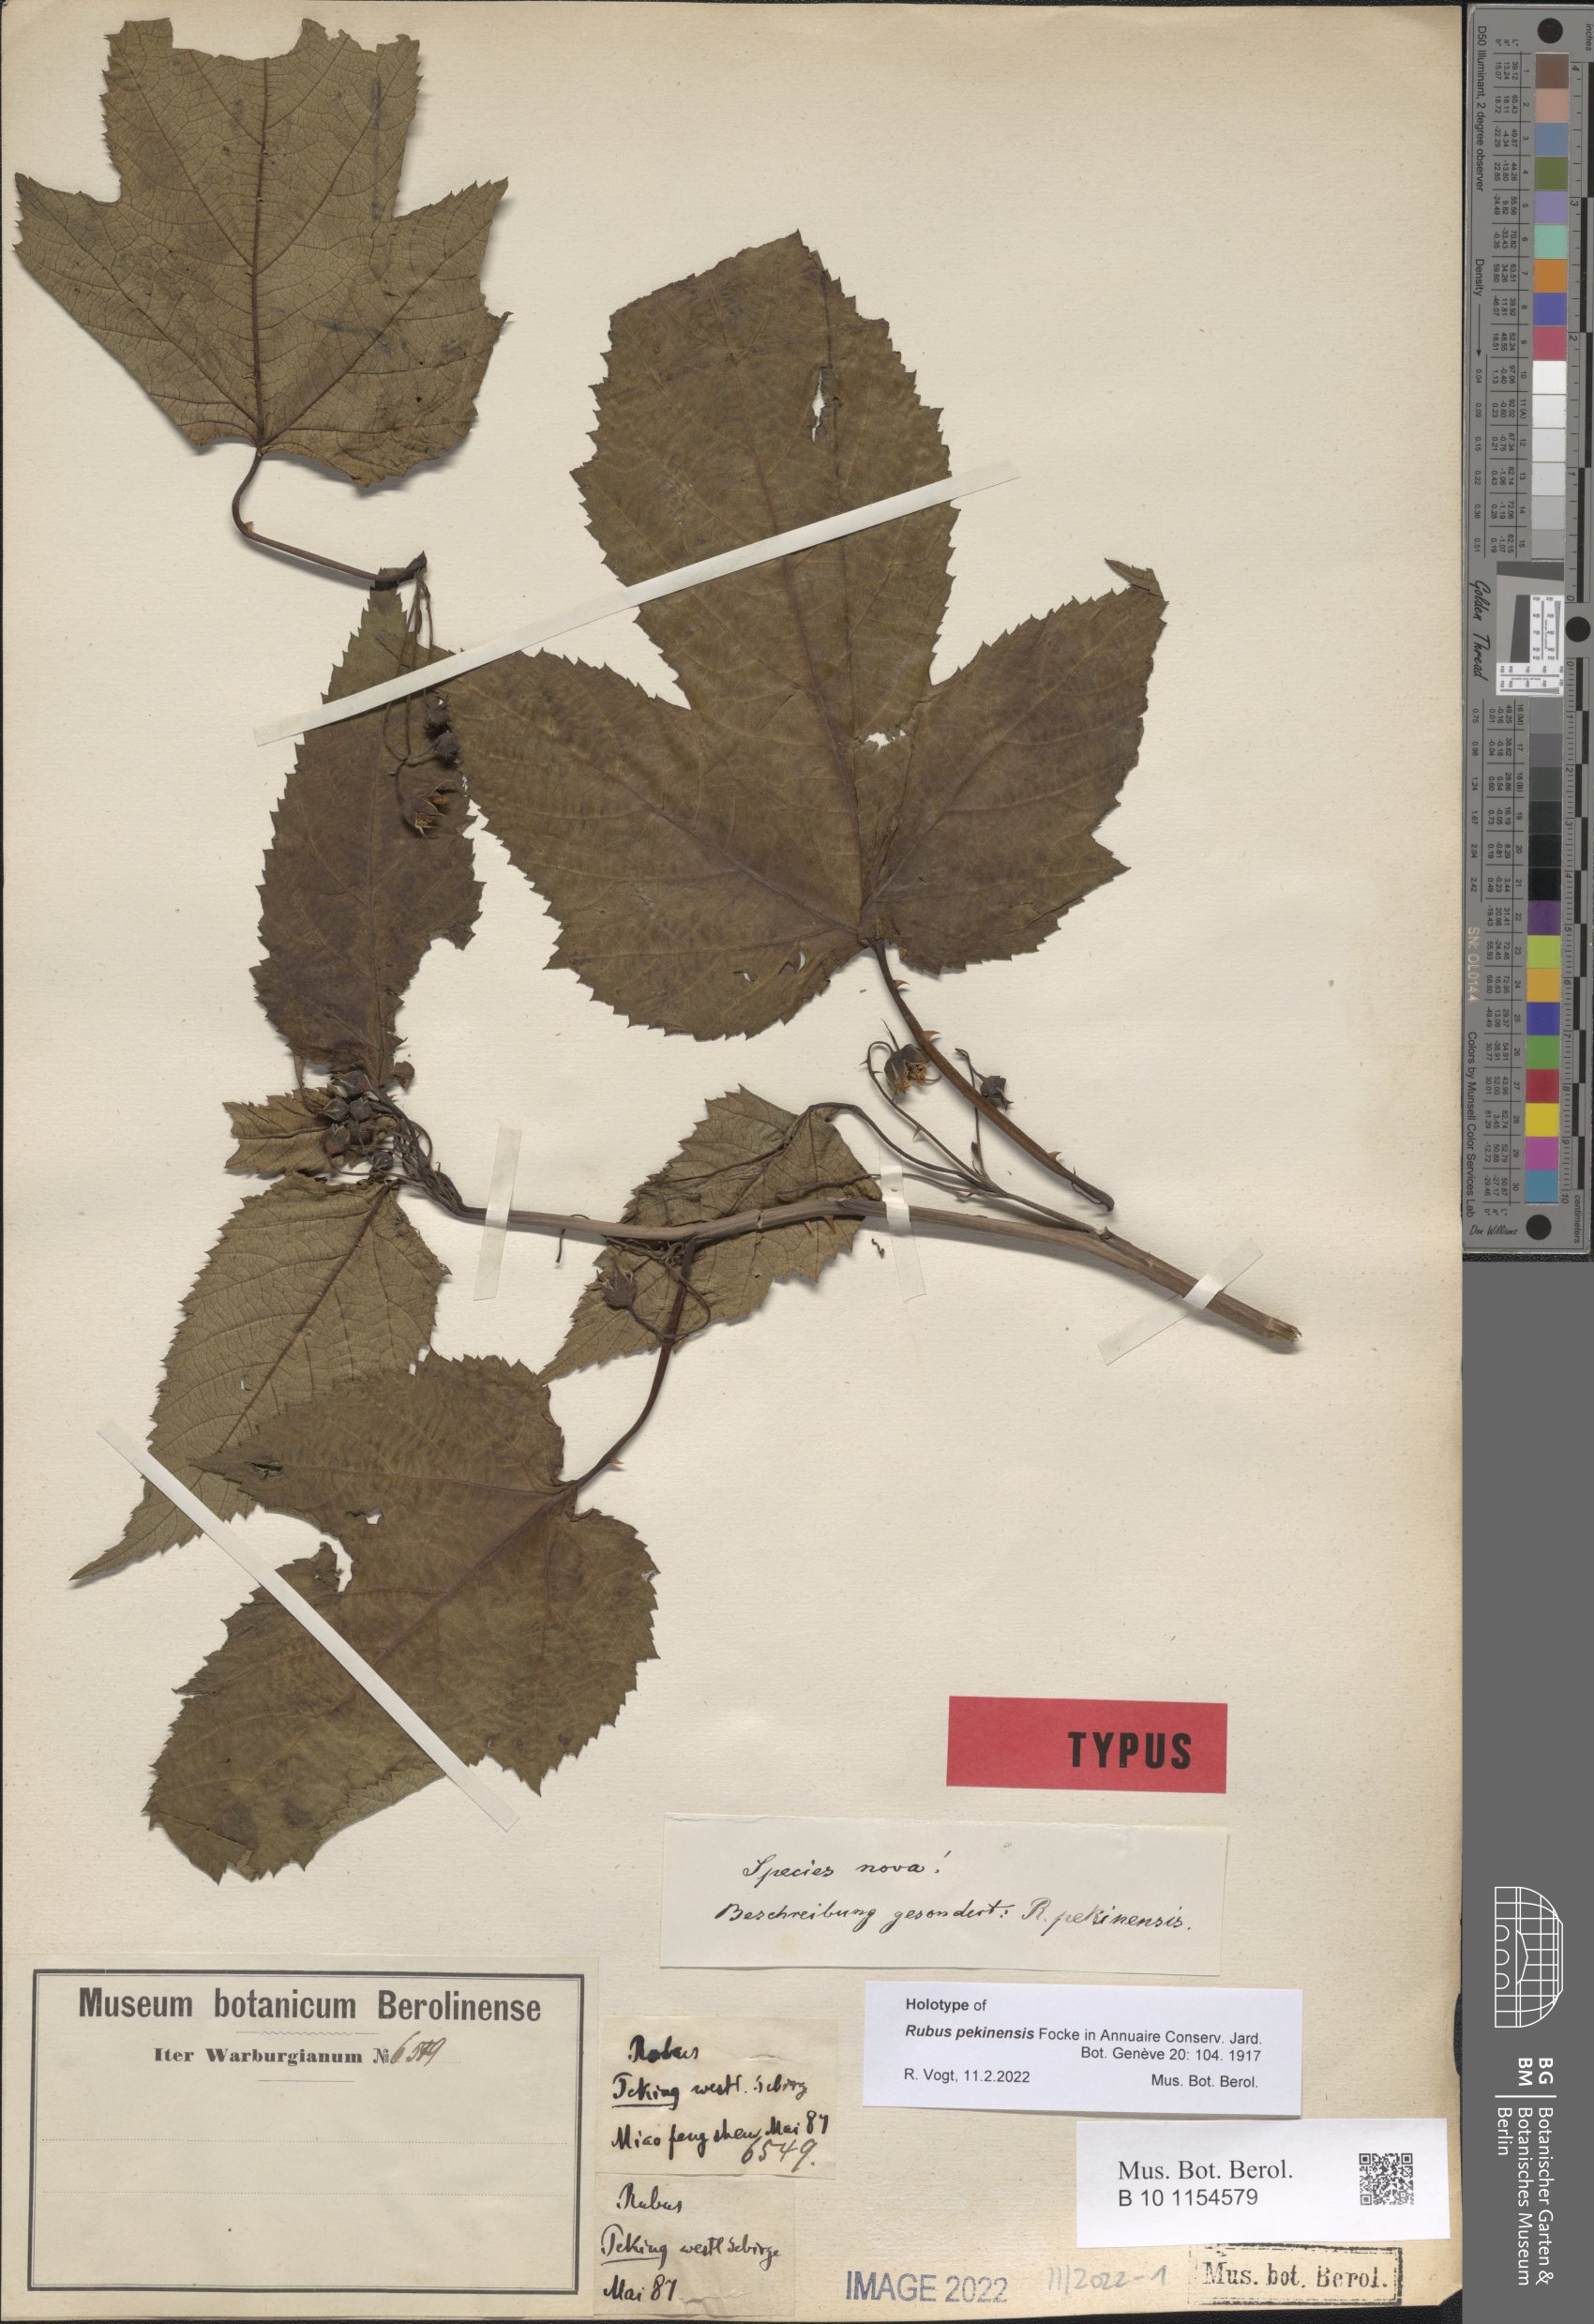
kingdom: Plantae
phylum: Tracheophyta
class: Magnoliopsida
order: Rosales
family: Rosaceae
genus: Rubus
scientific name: Rubus crataegifolius
